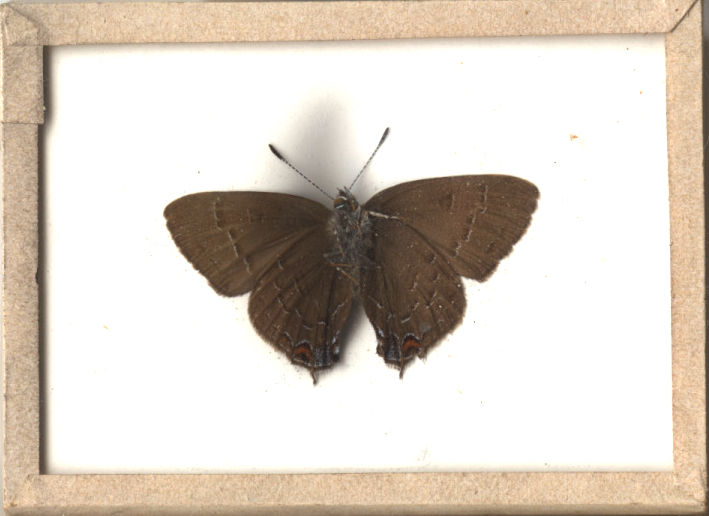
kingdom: Animalia
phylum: Arthropoda
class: Insecta
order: Lepidoptera
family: Lycaenidae
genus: Satyrium
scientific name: Satyrium calanus
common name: Banded Hairstreak
